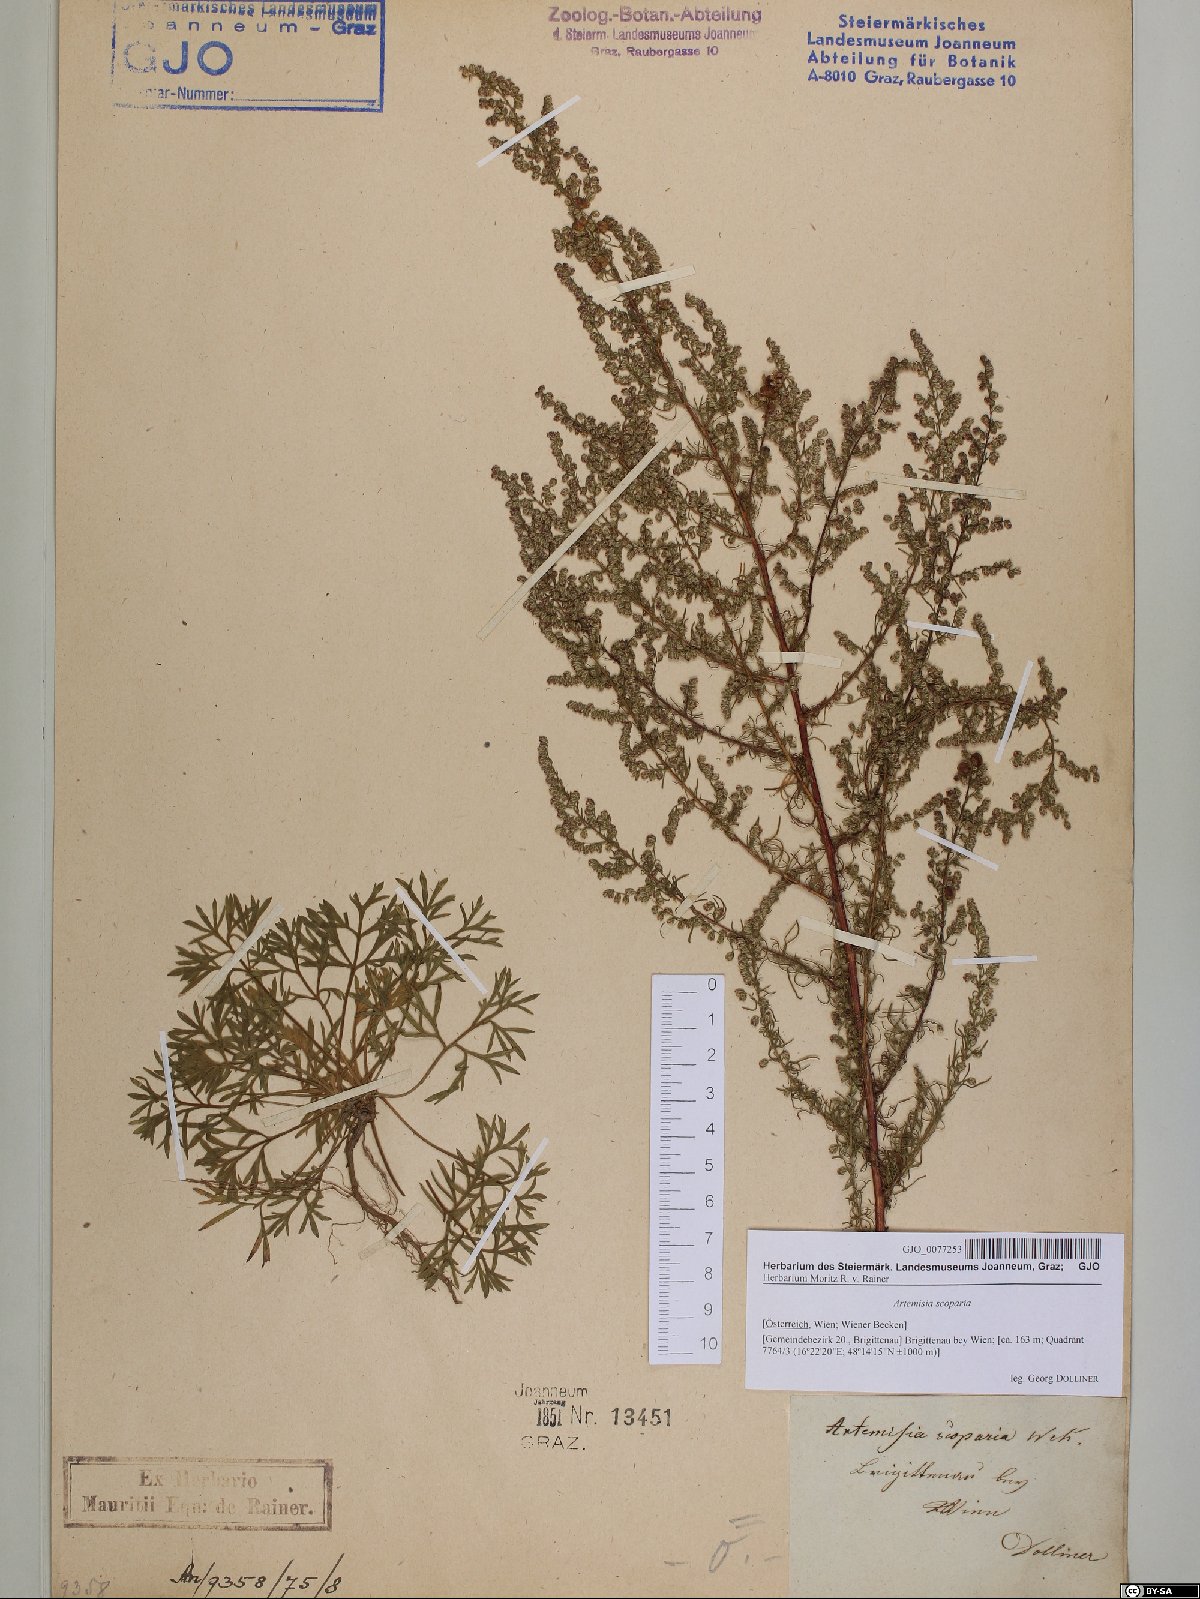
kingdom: Plantae
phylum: Tracheophyta
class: Magnoliopsida
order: Asterales
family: Asteraceae
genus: Artemisia
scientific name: Artemisia scoparia
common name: Redstem wormwood
